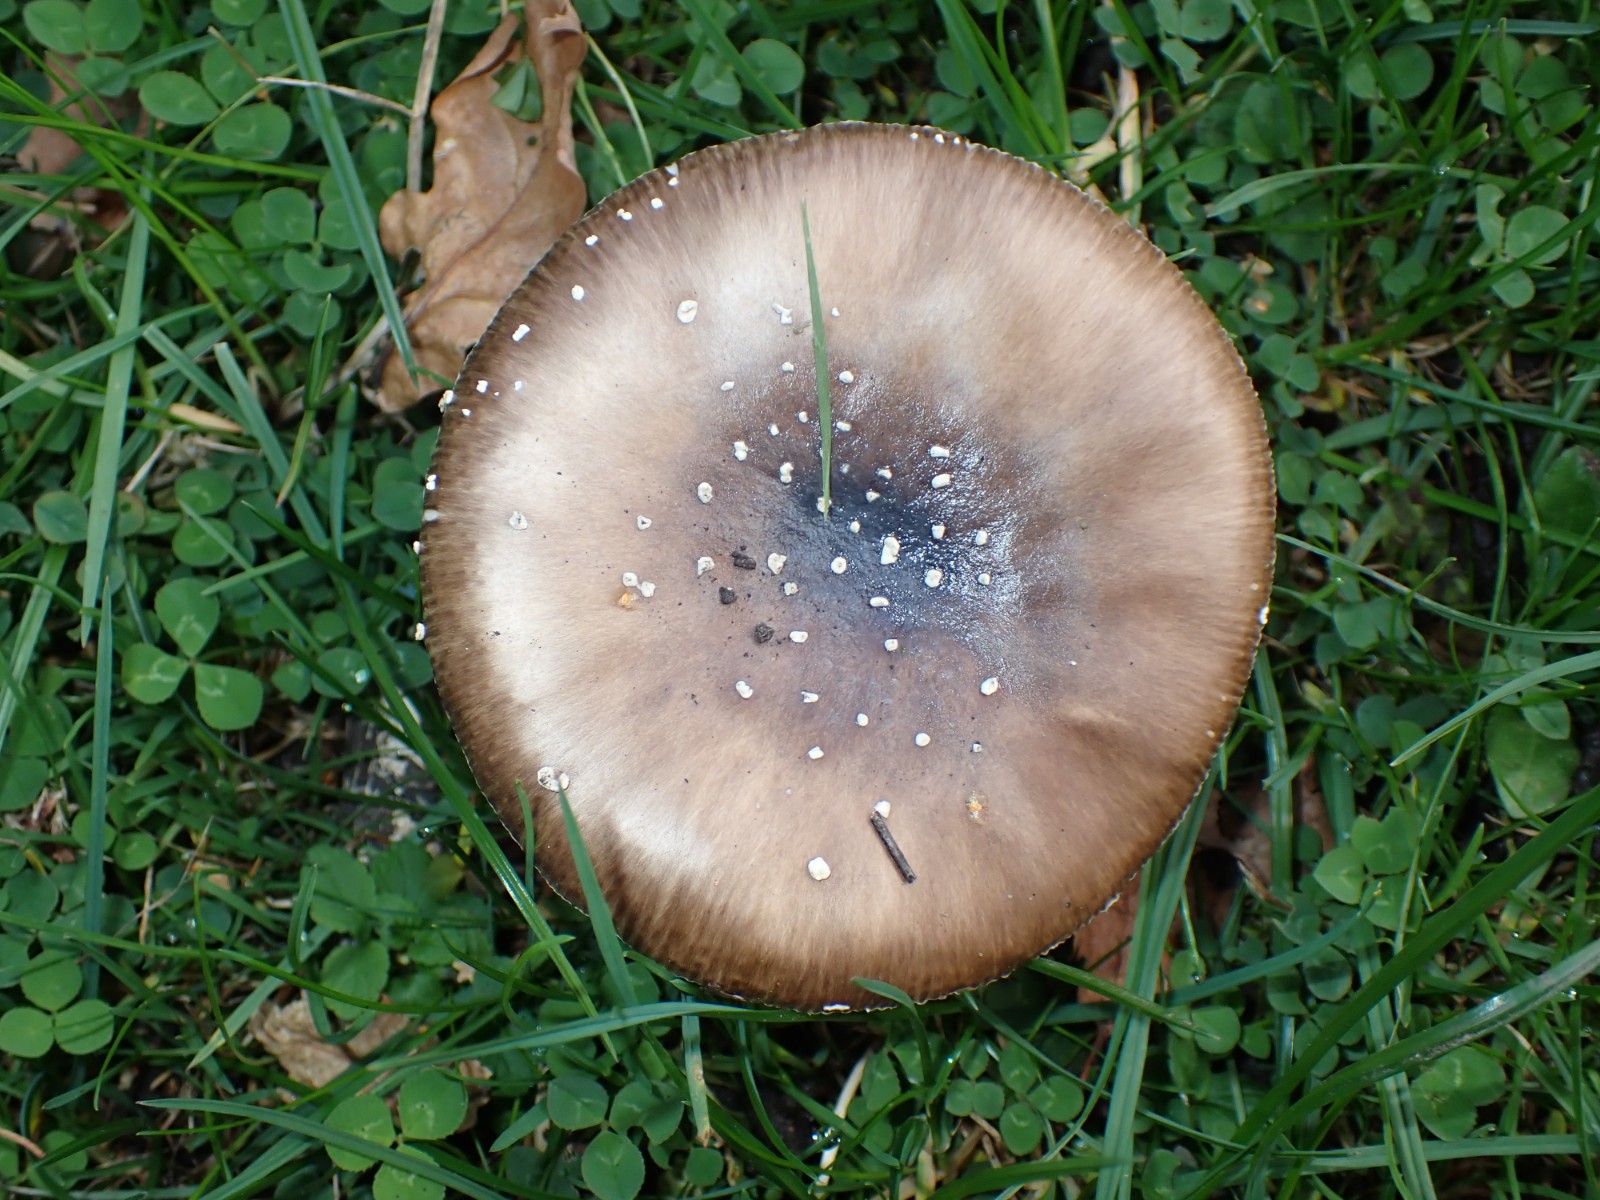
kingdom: Fungi
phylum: Basidiomycota
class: Agaricomycetes
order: Agaricales
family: Amanitaceae
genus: Amanita
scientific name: Amanita pantherina
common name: panter-fluesvamp
